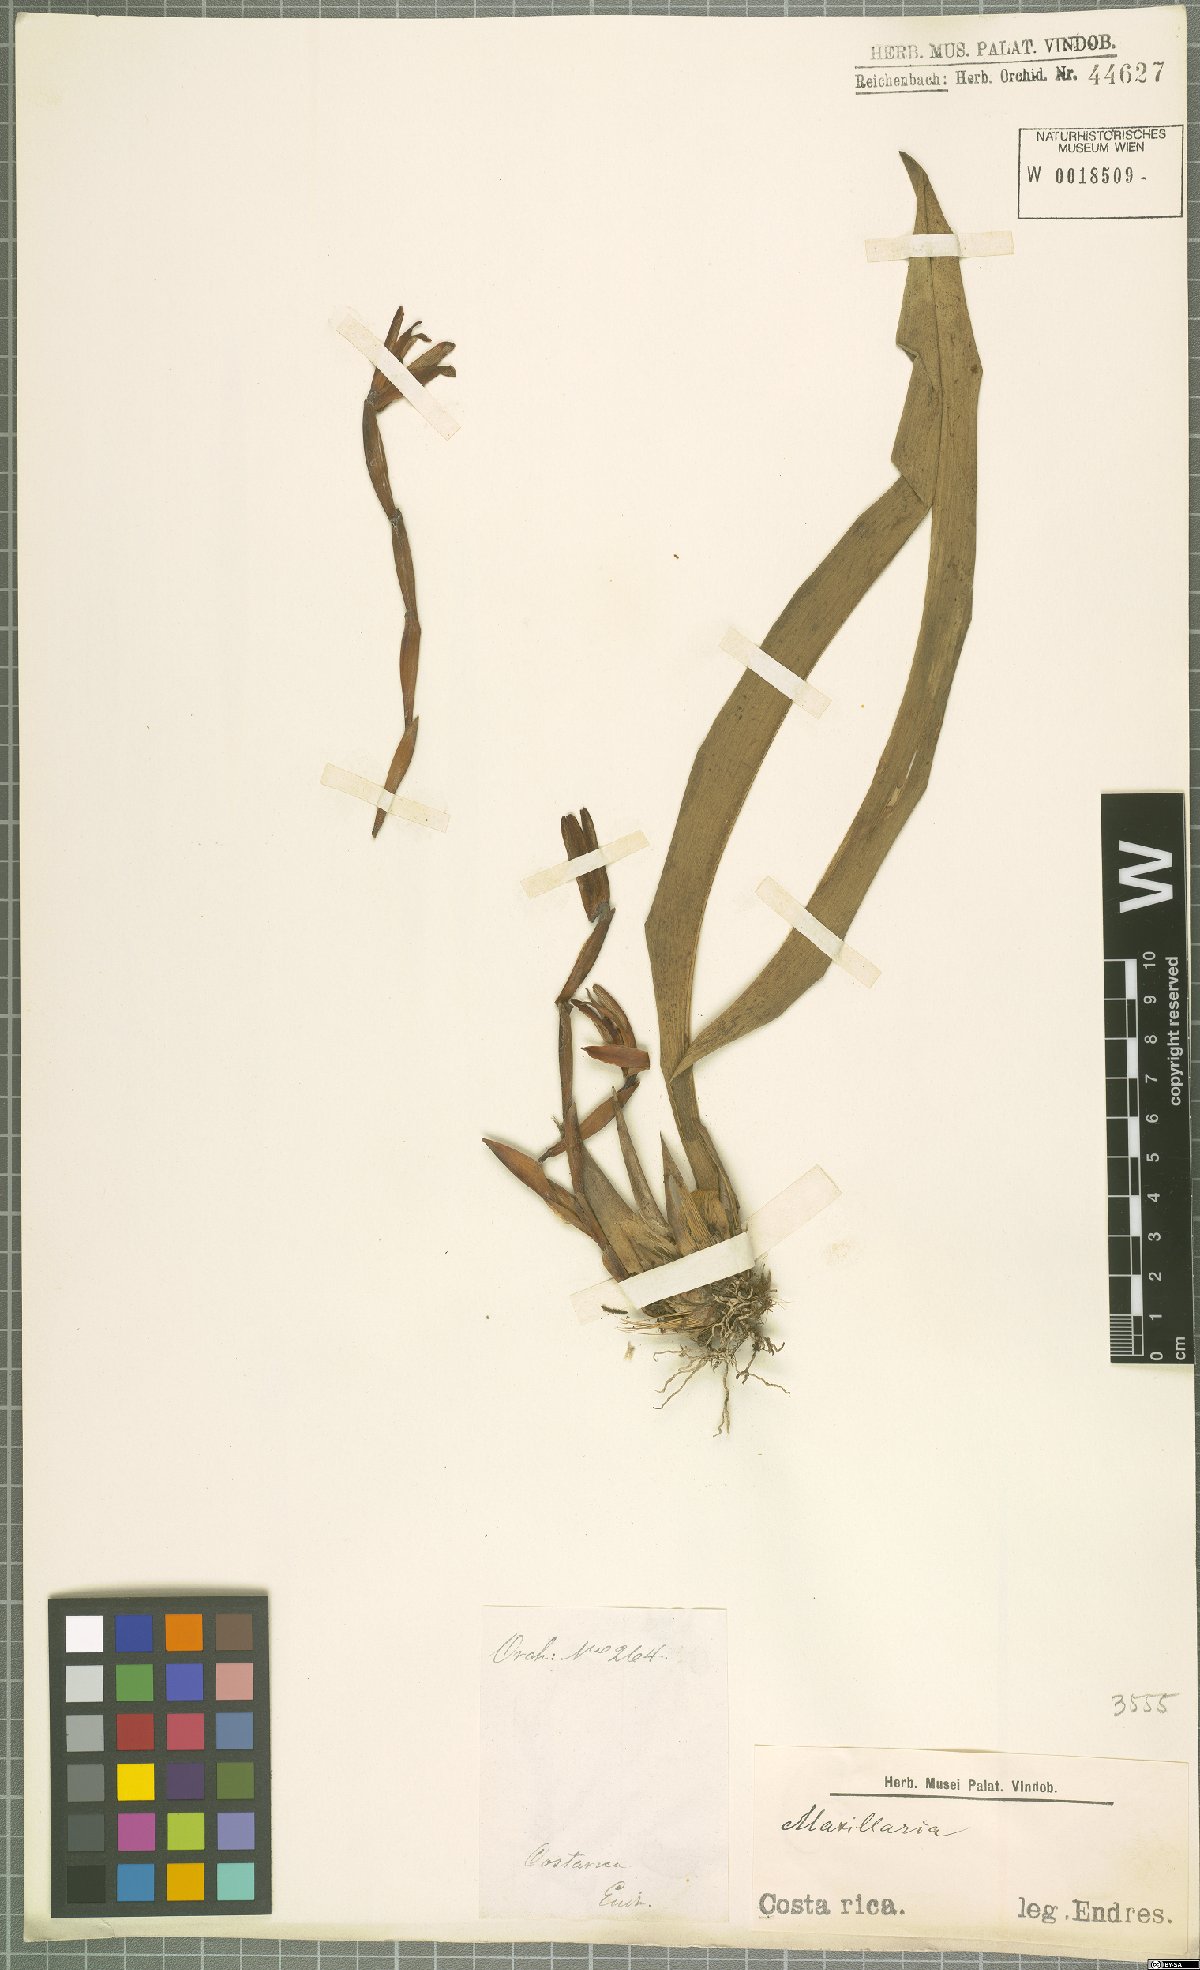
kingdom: Plantae
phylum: Tracheophyta
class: Liliopsida
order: Asparagales
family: Orchidaceae
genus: Maxillaria
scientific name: Maxillaria
